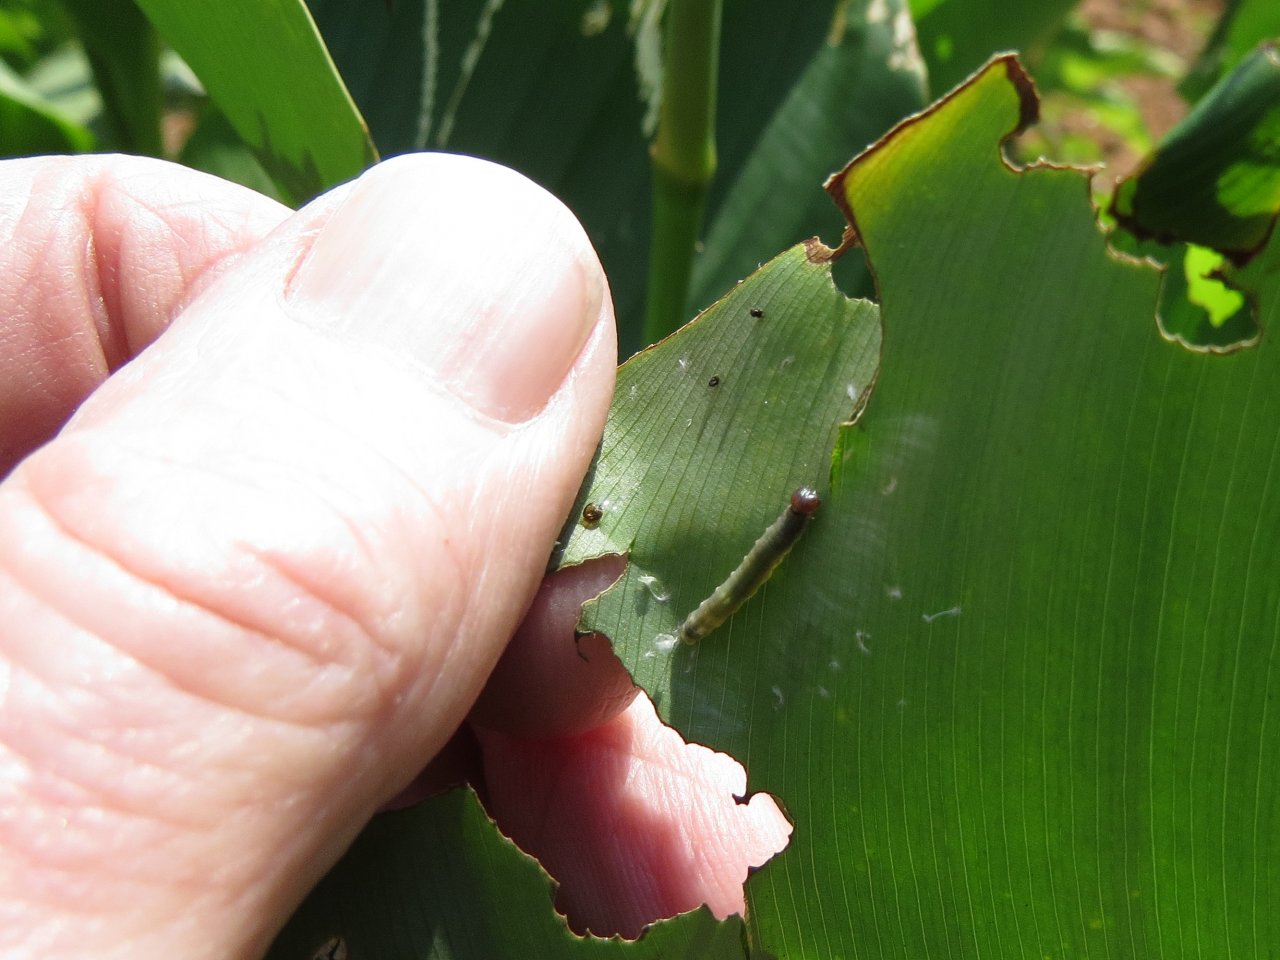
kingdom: Animalia
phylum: Arthropoda
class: Insecta
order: Lepidoptera
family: Hesperiidae
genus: Calpodes
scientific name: Calpodes ethlius
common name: Brazilian Skipper
